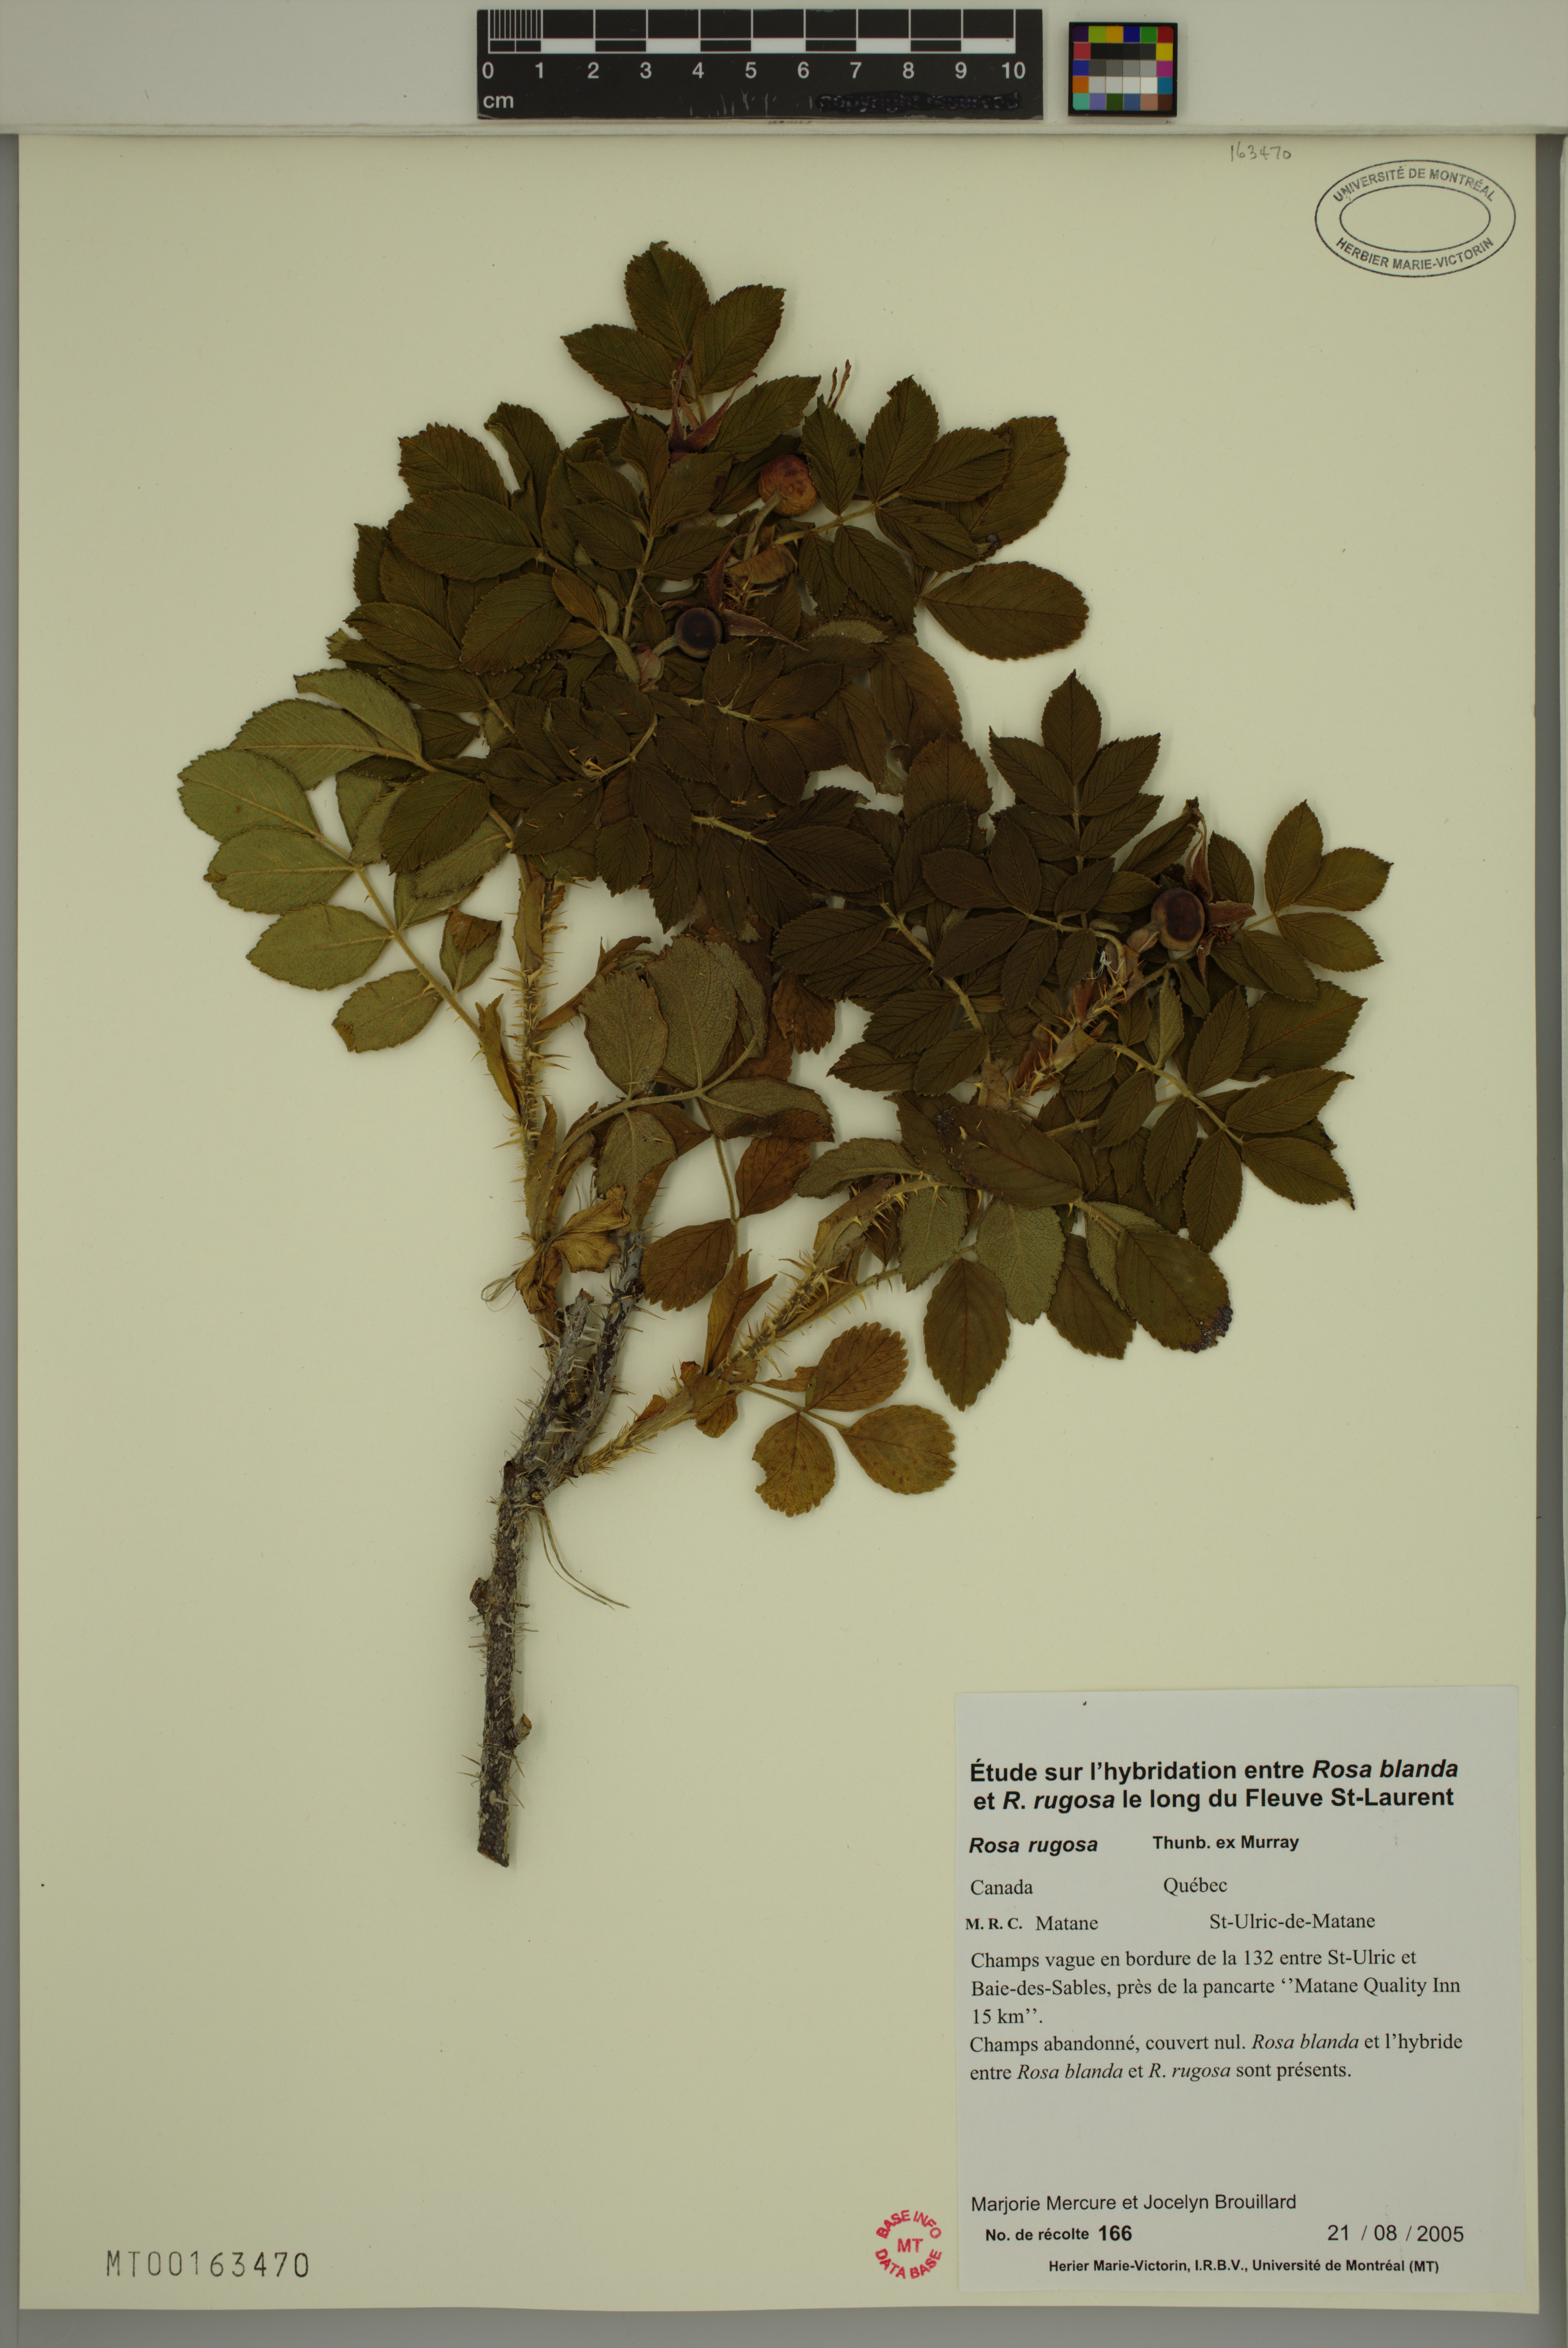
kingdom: Plantae
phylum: Tracheophyta
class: Magnoliopsida
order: Rosales
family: Rosaceae
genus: Rosa
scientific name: Rosa rugosa
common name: Japanese rose
